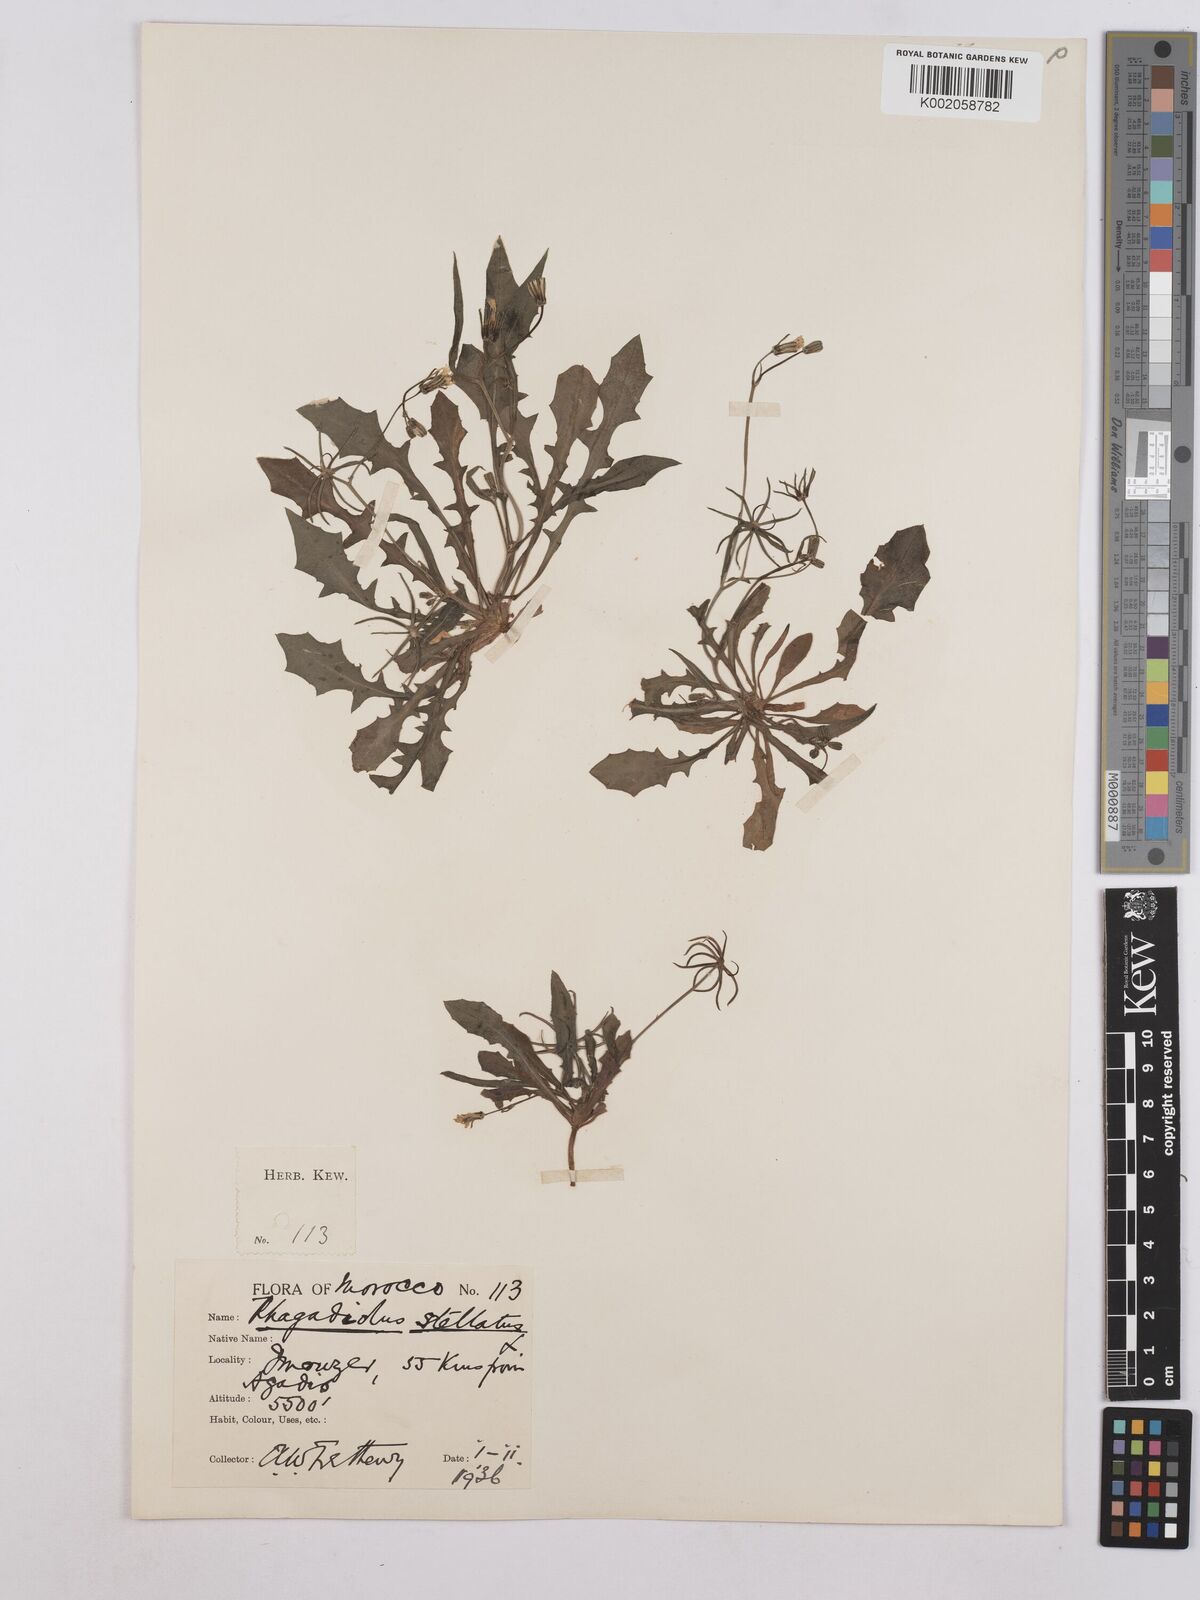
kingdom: Plantae
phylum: Tracheophyta
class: Magnoliopsida
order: Asterales
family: Asteraceae
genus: Rhagadiolus
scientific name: Rhagadiolus stellatus
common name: Star hawkbit
